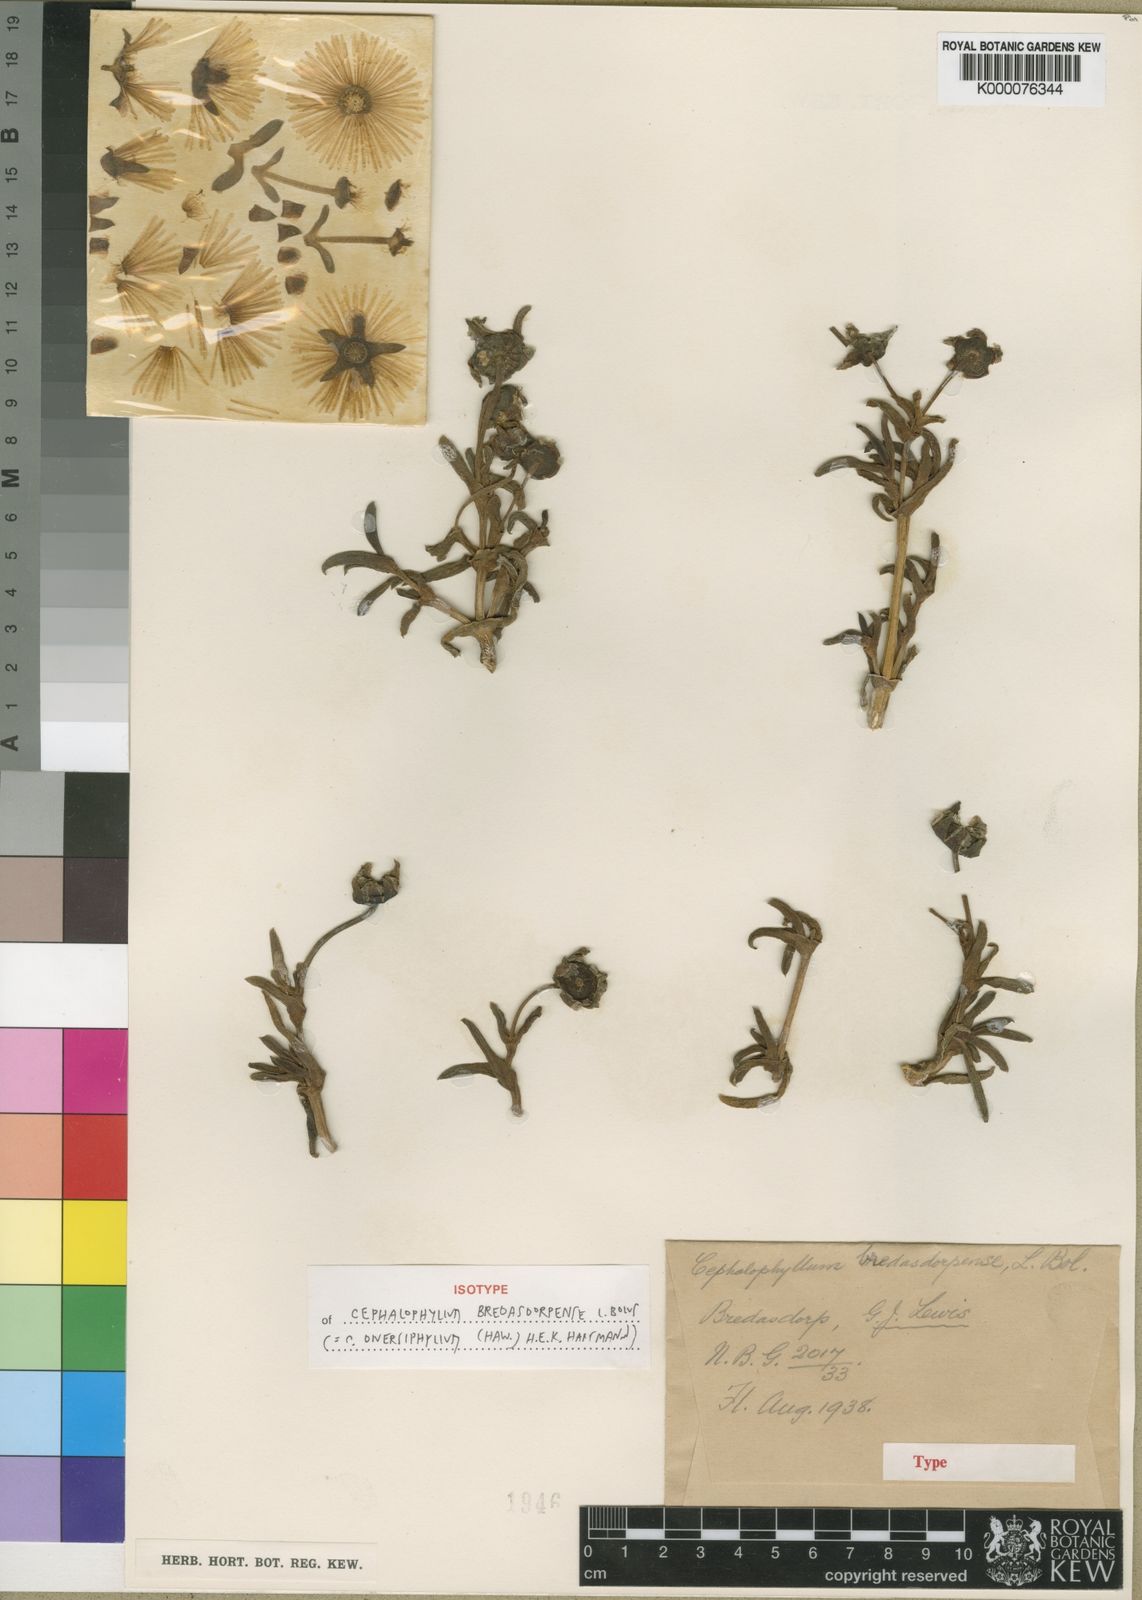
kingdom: Plantae
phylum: Tracheophyta
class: Magnoliopsida
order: Caryophyllales
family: Aizoaceae
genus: Cephalophyllum
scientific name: Cephalophyllum diversiphyllum
